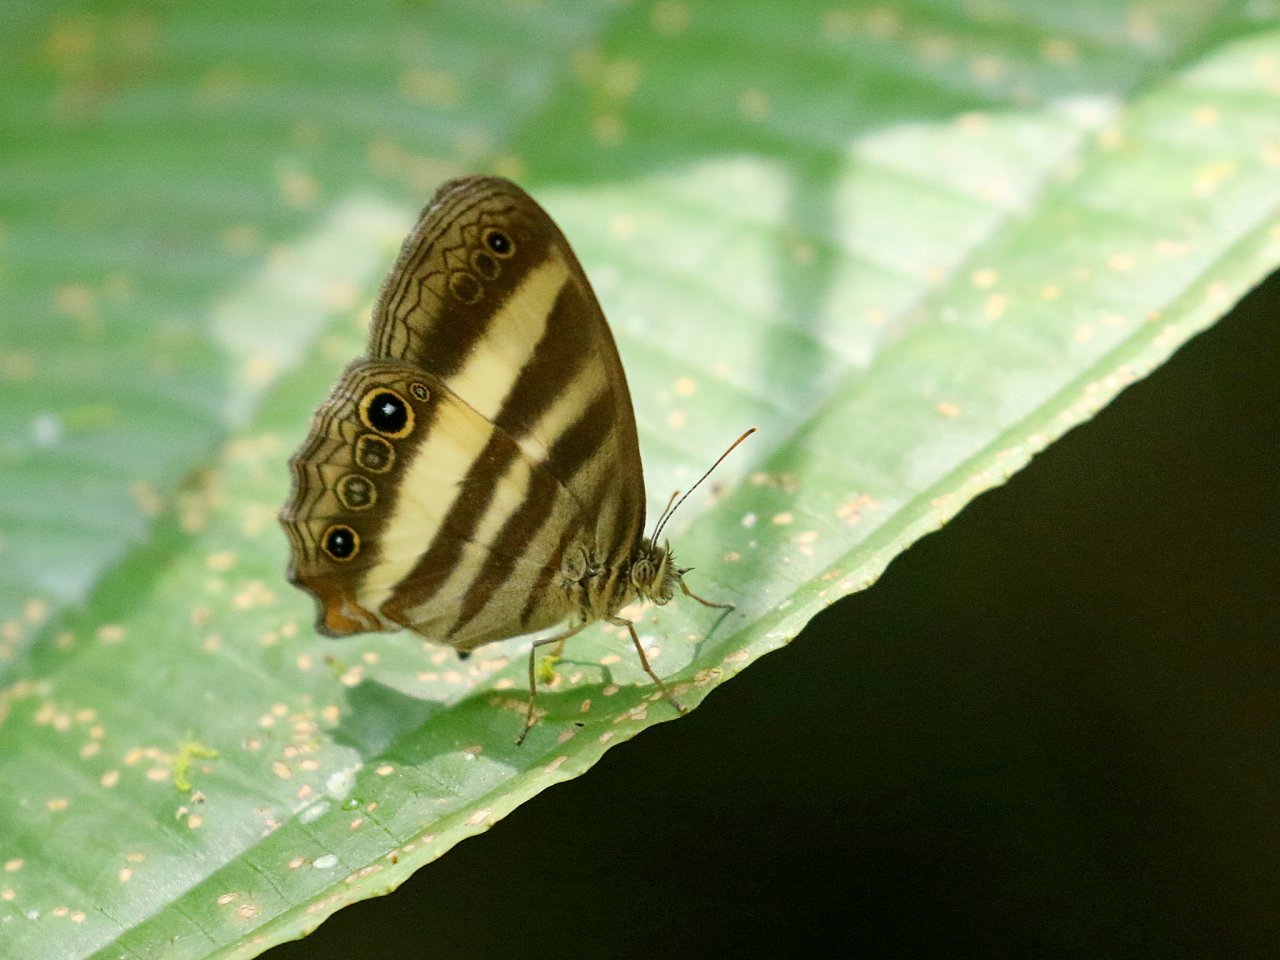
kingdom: Animalia
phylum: Arthropoda
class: Insecta
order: Lepidoptera
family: Nymphalidae
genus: Pareuptychia
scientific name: Pareuptychia hesione
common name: White Satyr
